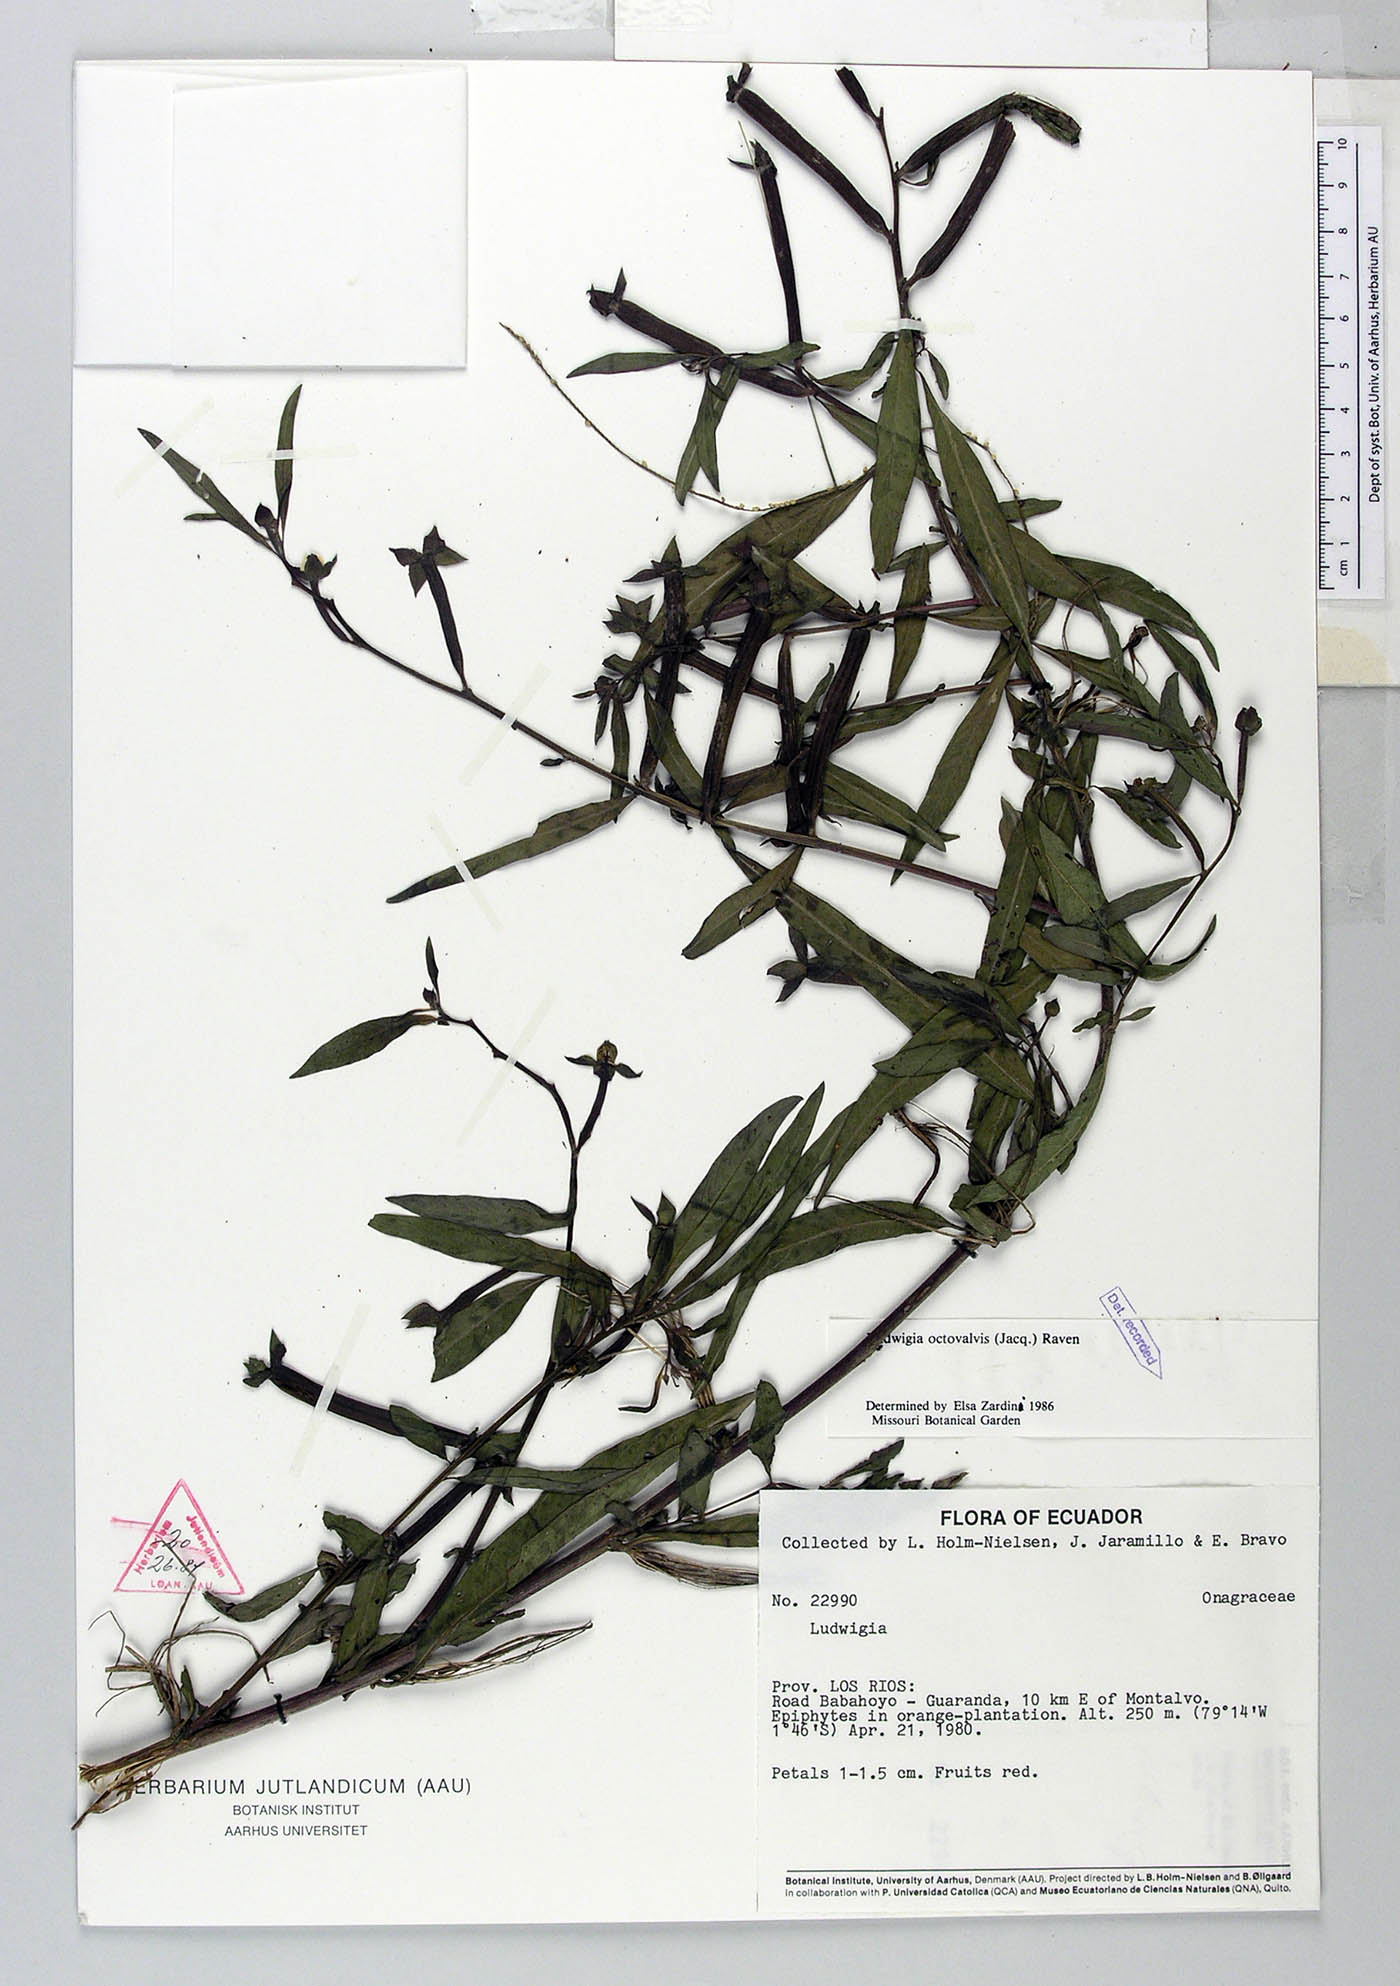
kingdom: Plantae
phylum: Tracheophyta
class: Magnoliopsida
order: Myrtales
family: Onagraceae
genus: Ludwigia
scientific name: Ludwigia octovalvis
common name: Water-primrose
